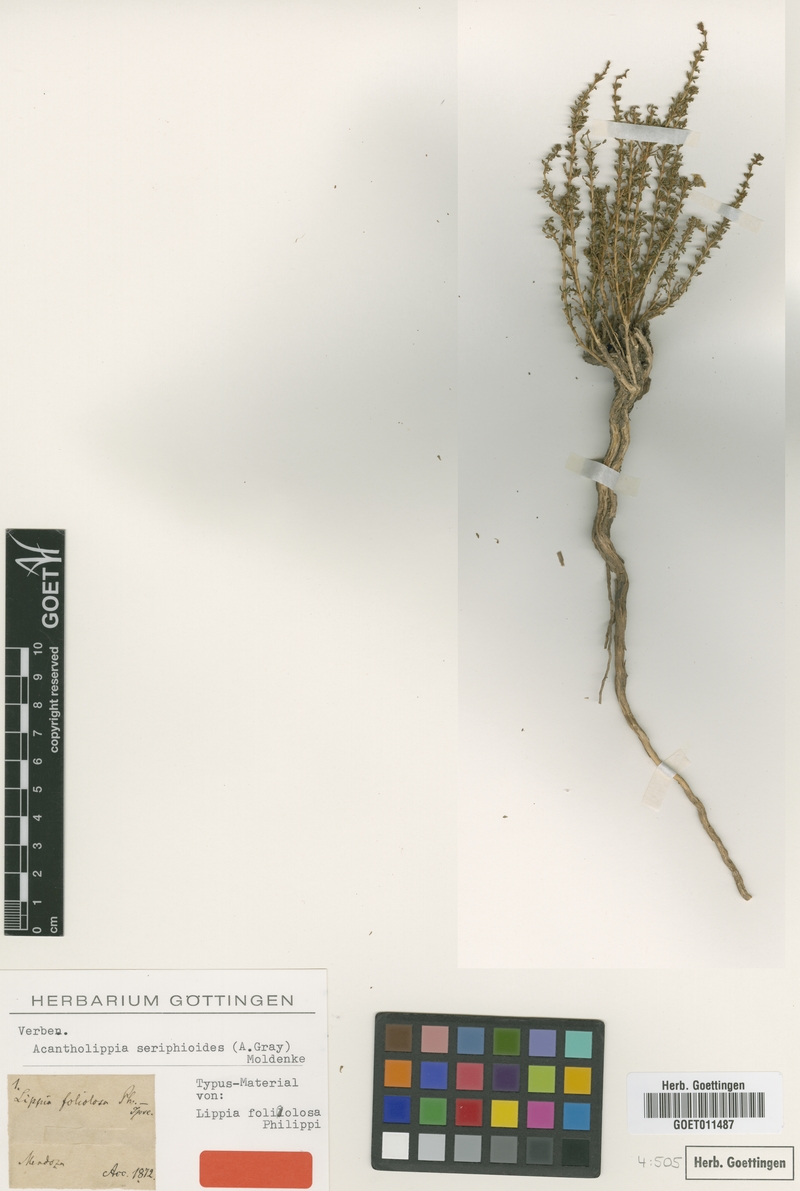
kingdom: Plantae
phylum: Tracheophyta
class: Magnoliopsida
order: Lamiales
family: Verbenaceae
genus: Acantholippia
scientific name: Acantholippia seriphioides
